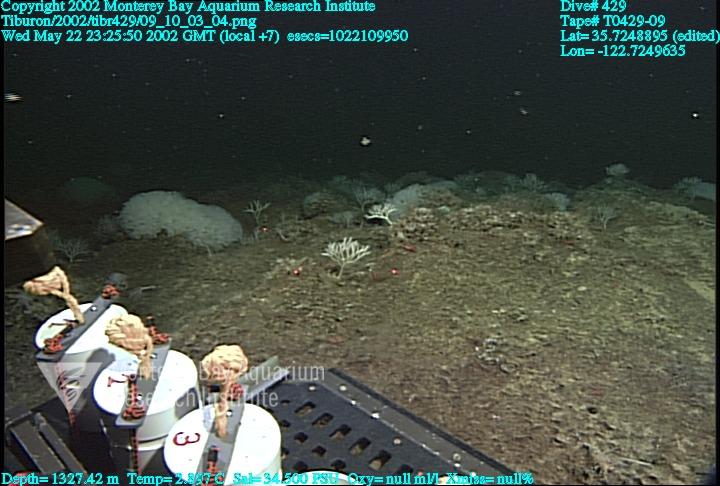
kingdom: Animalia
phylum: Porifera
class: Hexactinellida
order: Sceptrulophora
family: Farreidae
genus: Farrea
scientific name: Farrea occa
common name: Reversed glass sponge
